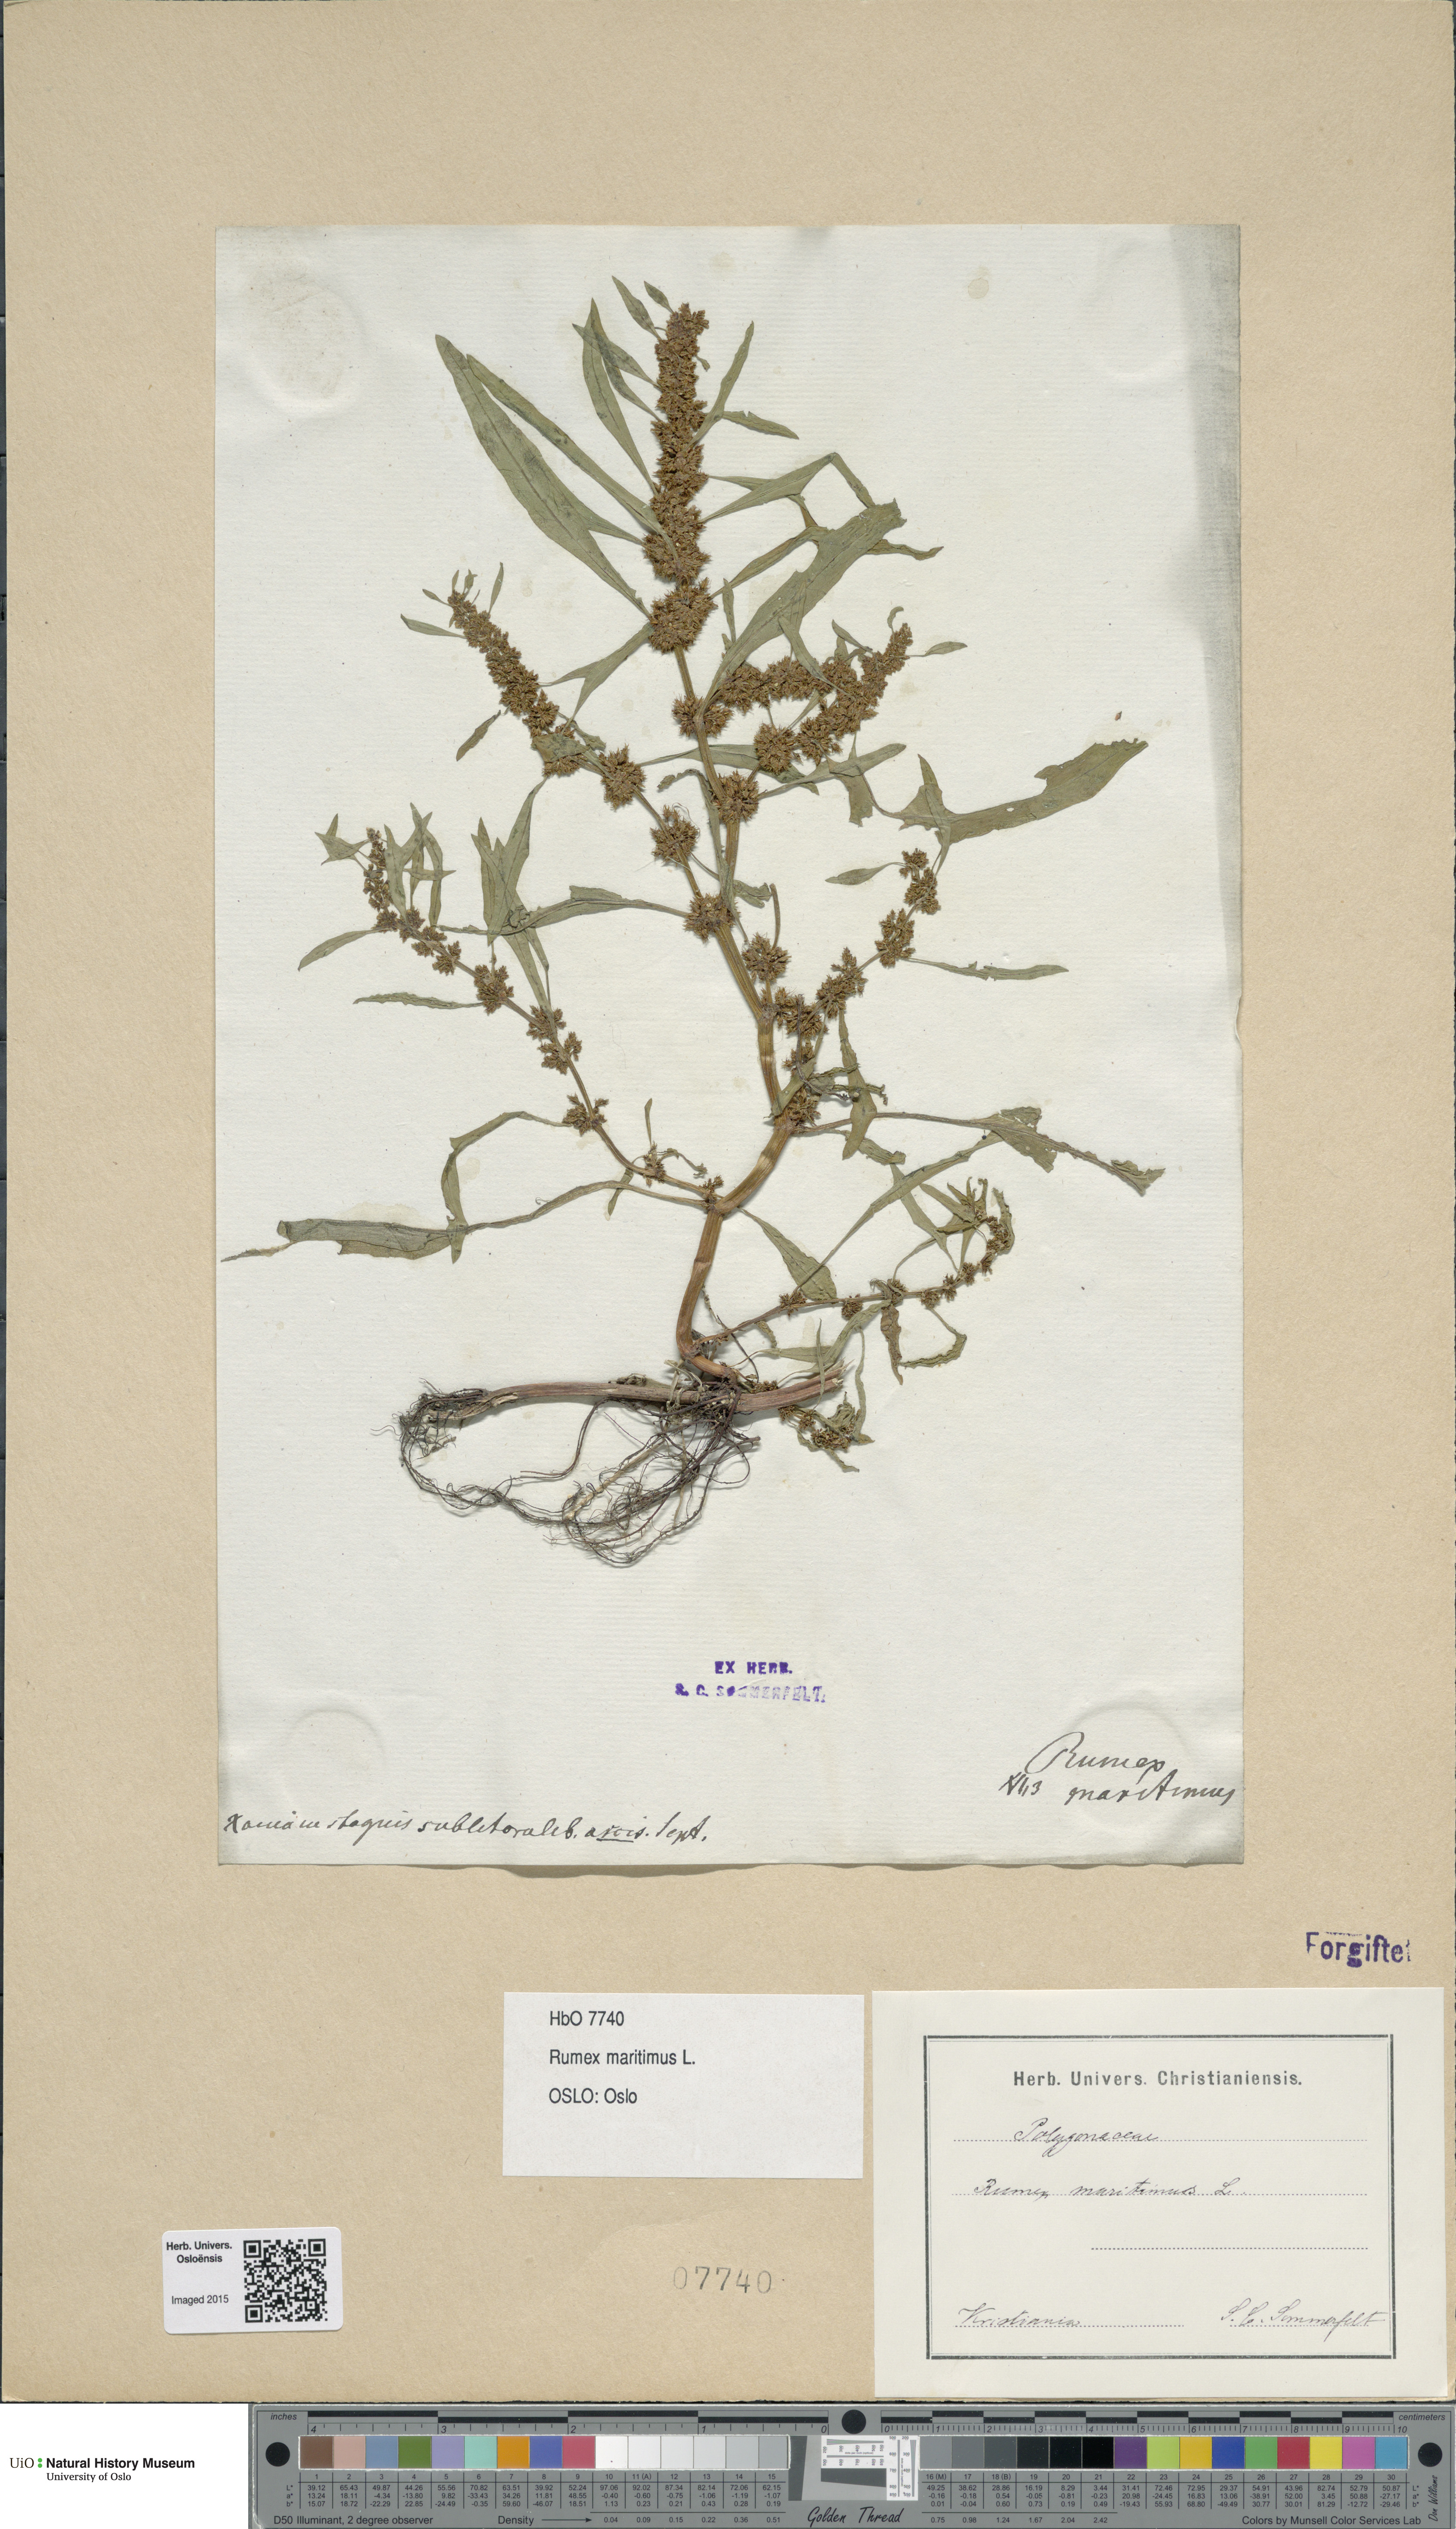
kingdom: Plantae
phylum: Tracheophyta
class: Magnoliopsida
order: Caryophyllales
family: Polygonaceae
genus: Rumex
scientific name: Rumex maritimus
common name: Golden dock
